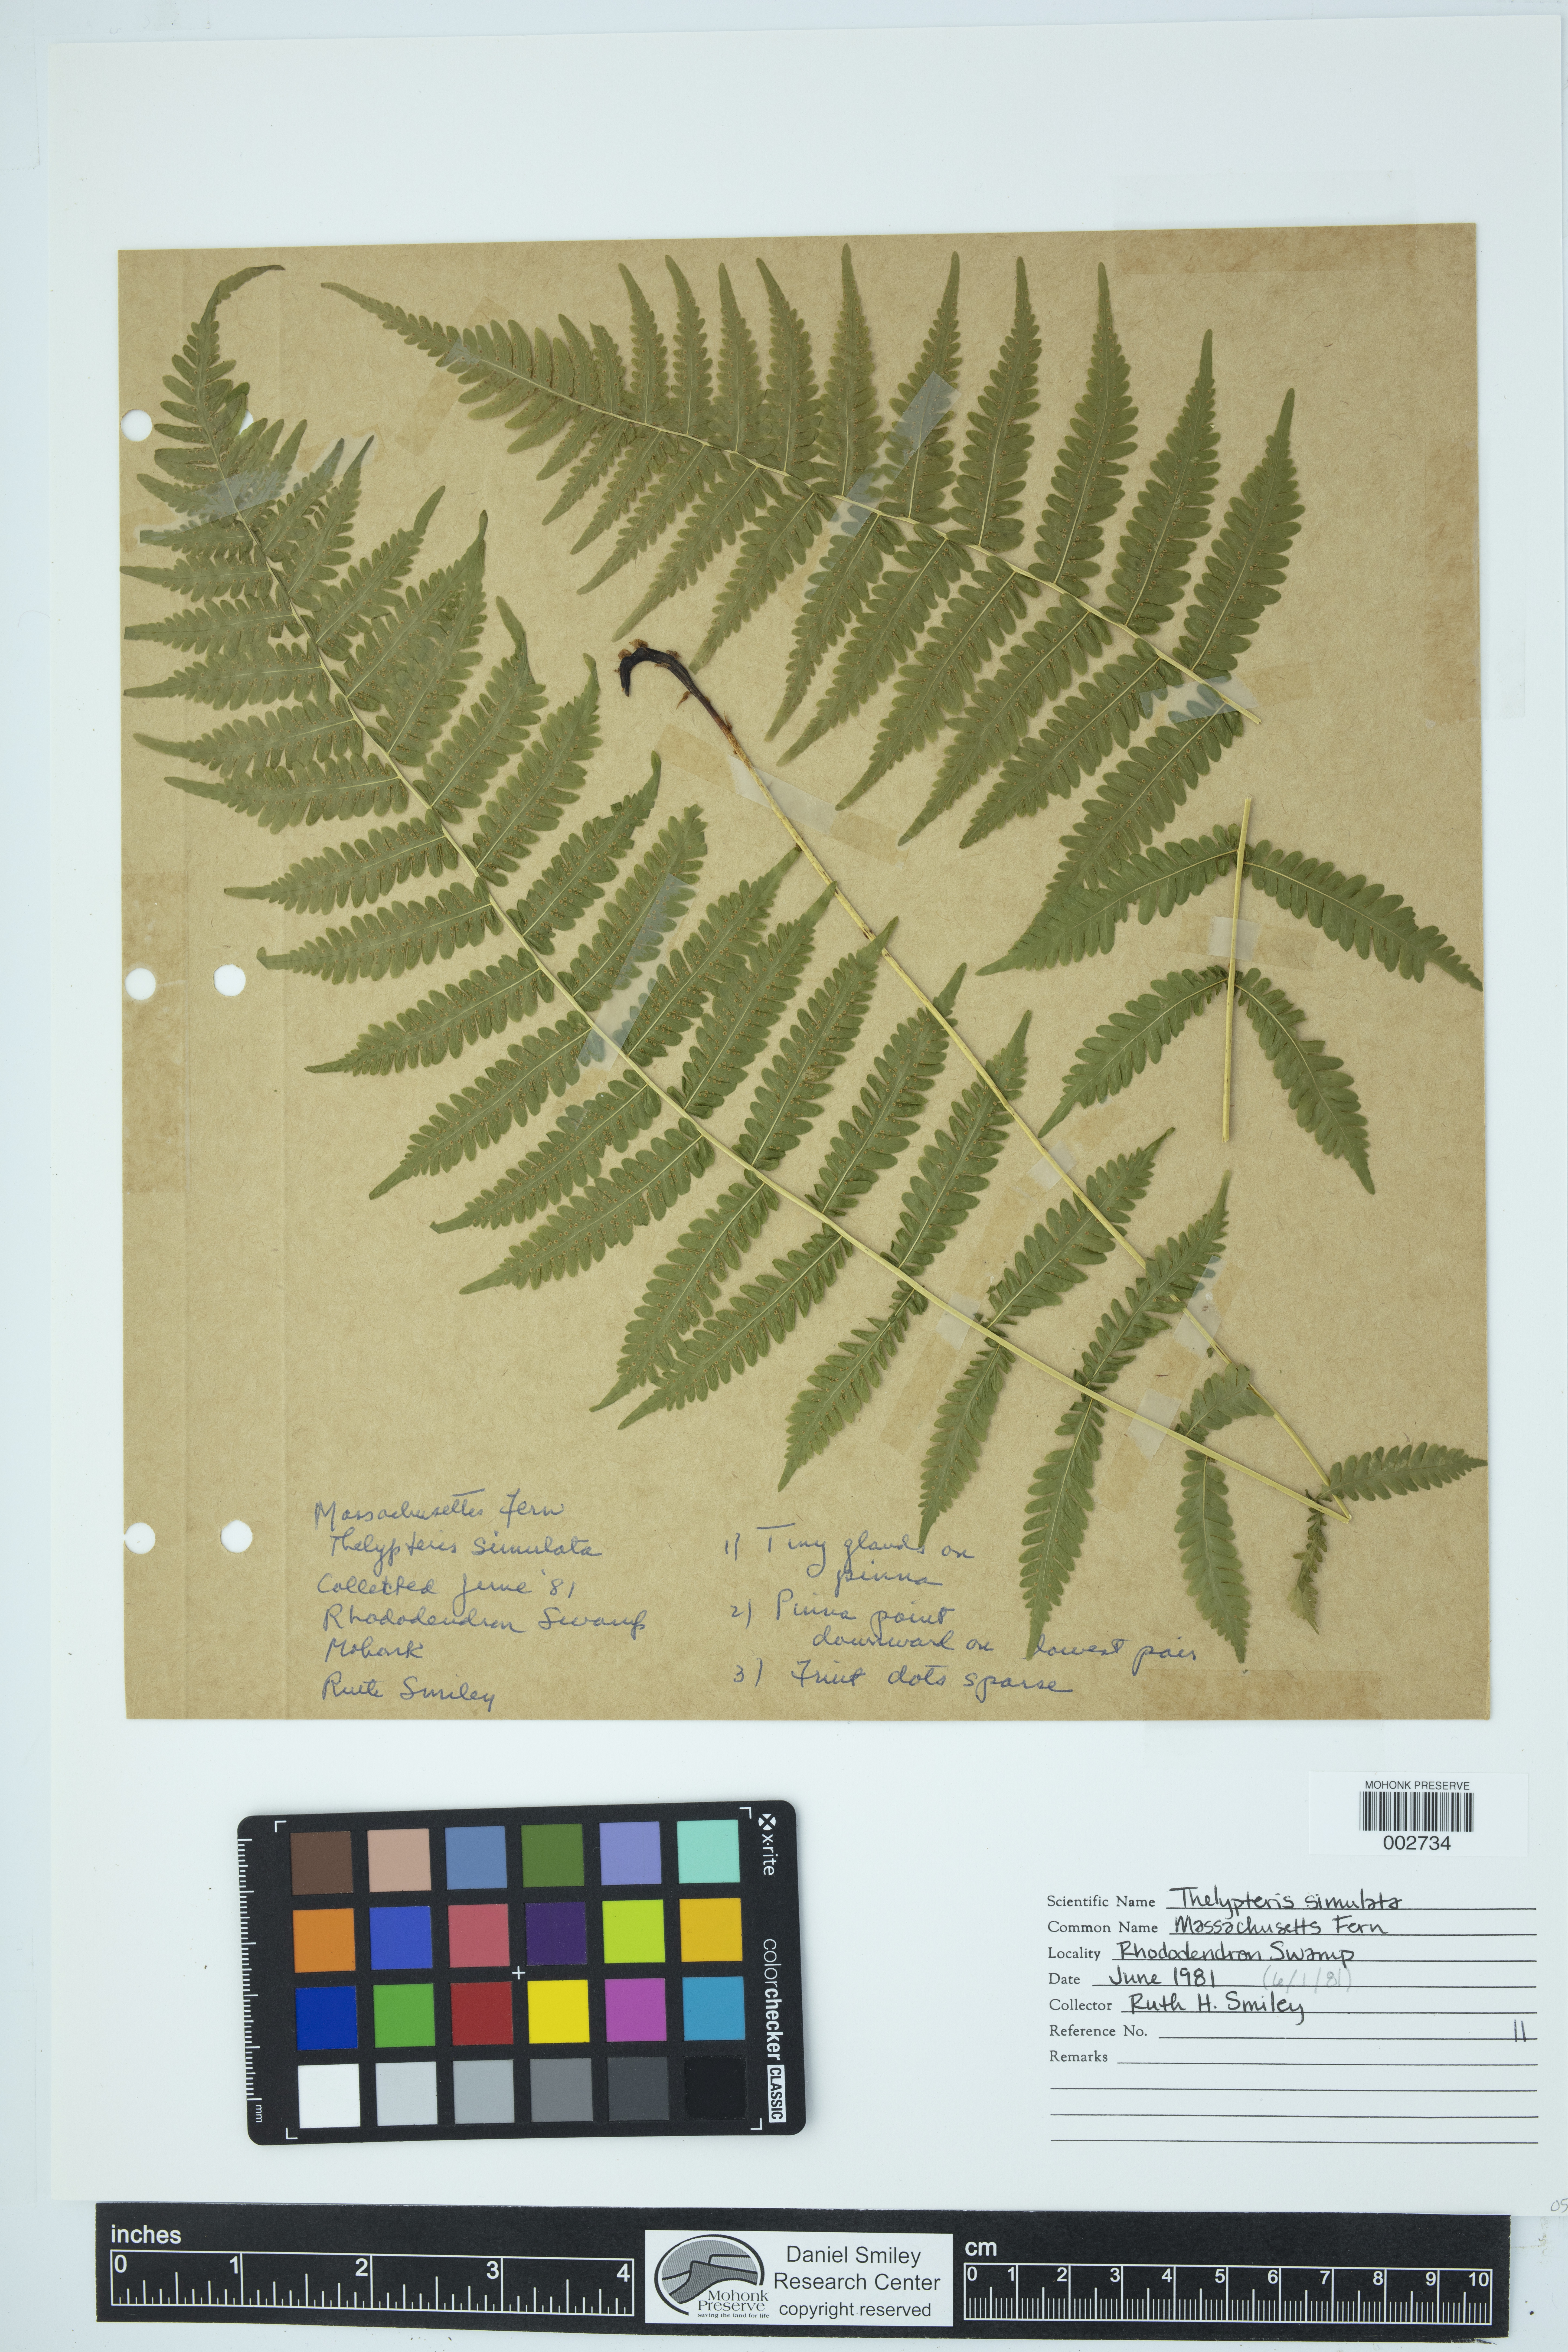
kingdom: Plantae
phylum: Tracheophyta
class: Polypodiopsida
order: Polypodiales
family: Thelypteridaceae
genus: Coryphopteris
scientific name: Coryphopteris simulata
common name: Bog fern
